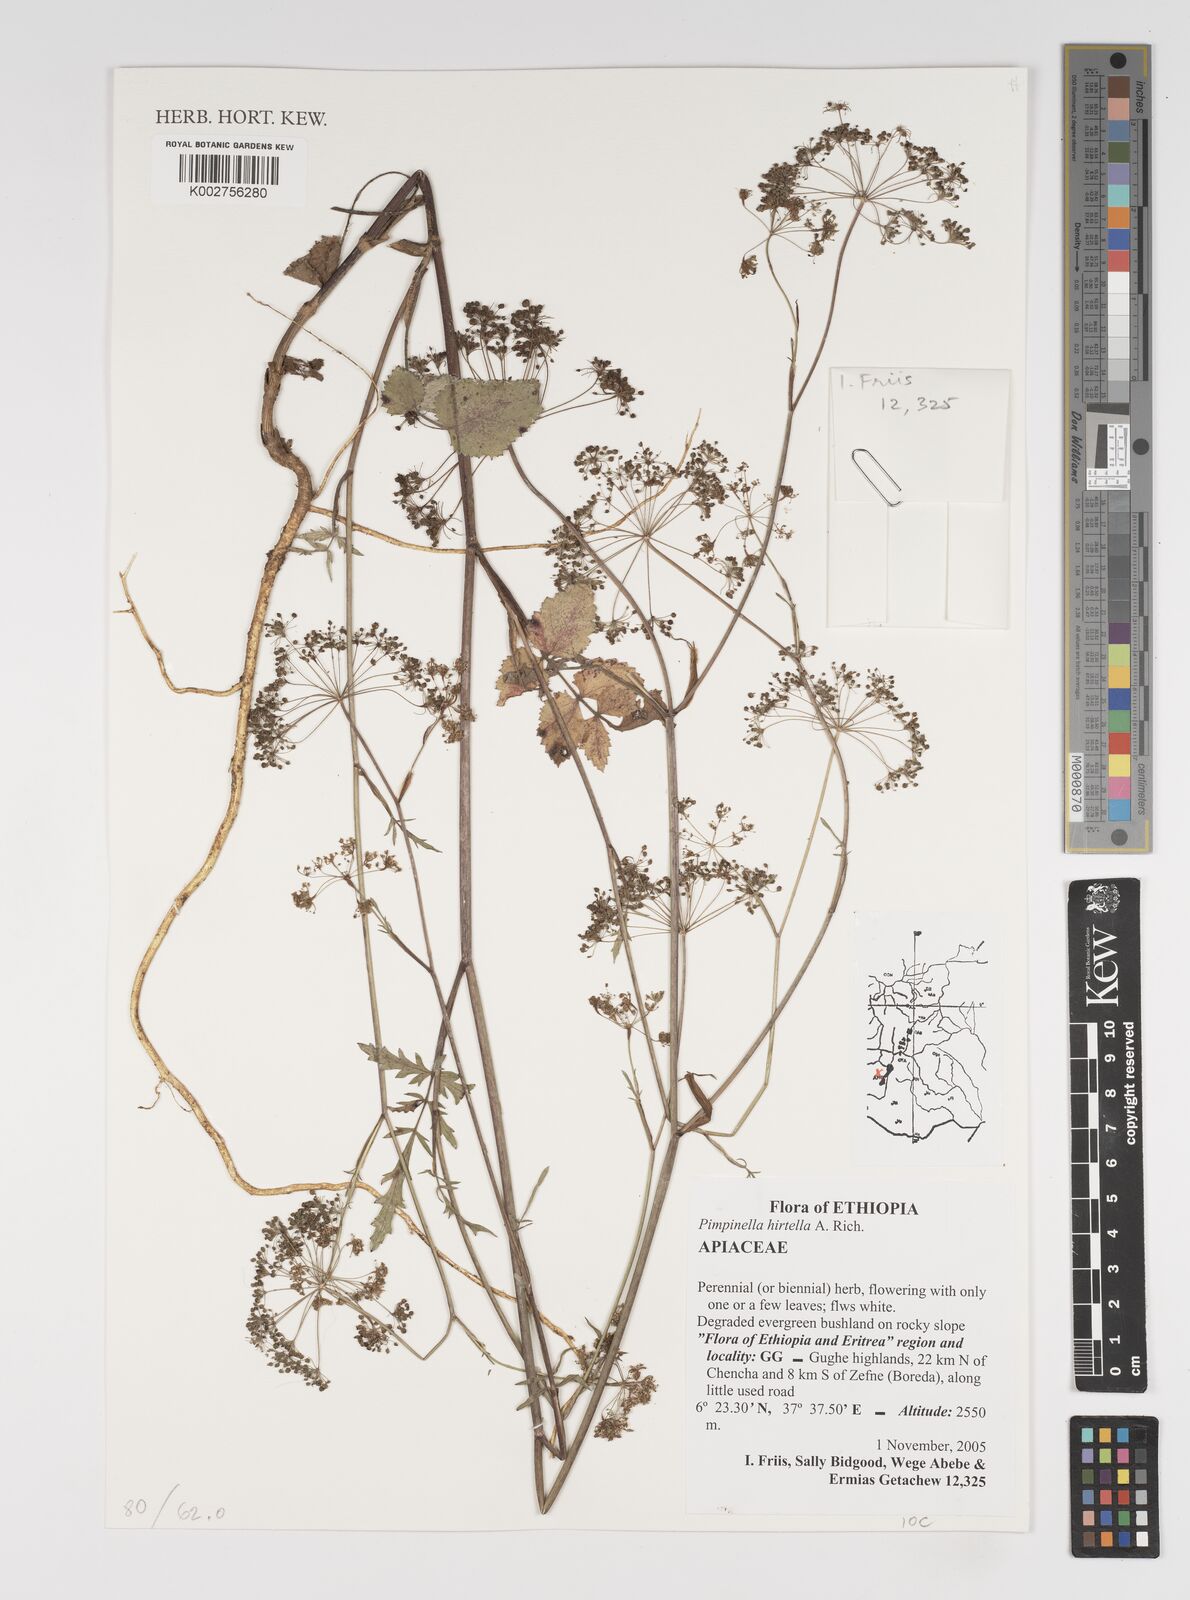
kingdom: Plantae
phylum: Tracheophyta
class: Magnoliopsida
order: Apiales
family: Apiaceae
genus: Pimpinella
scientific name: Pimpinella hirtella
